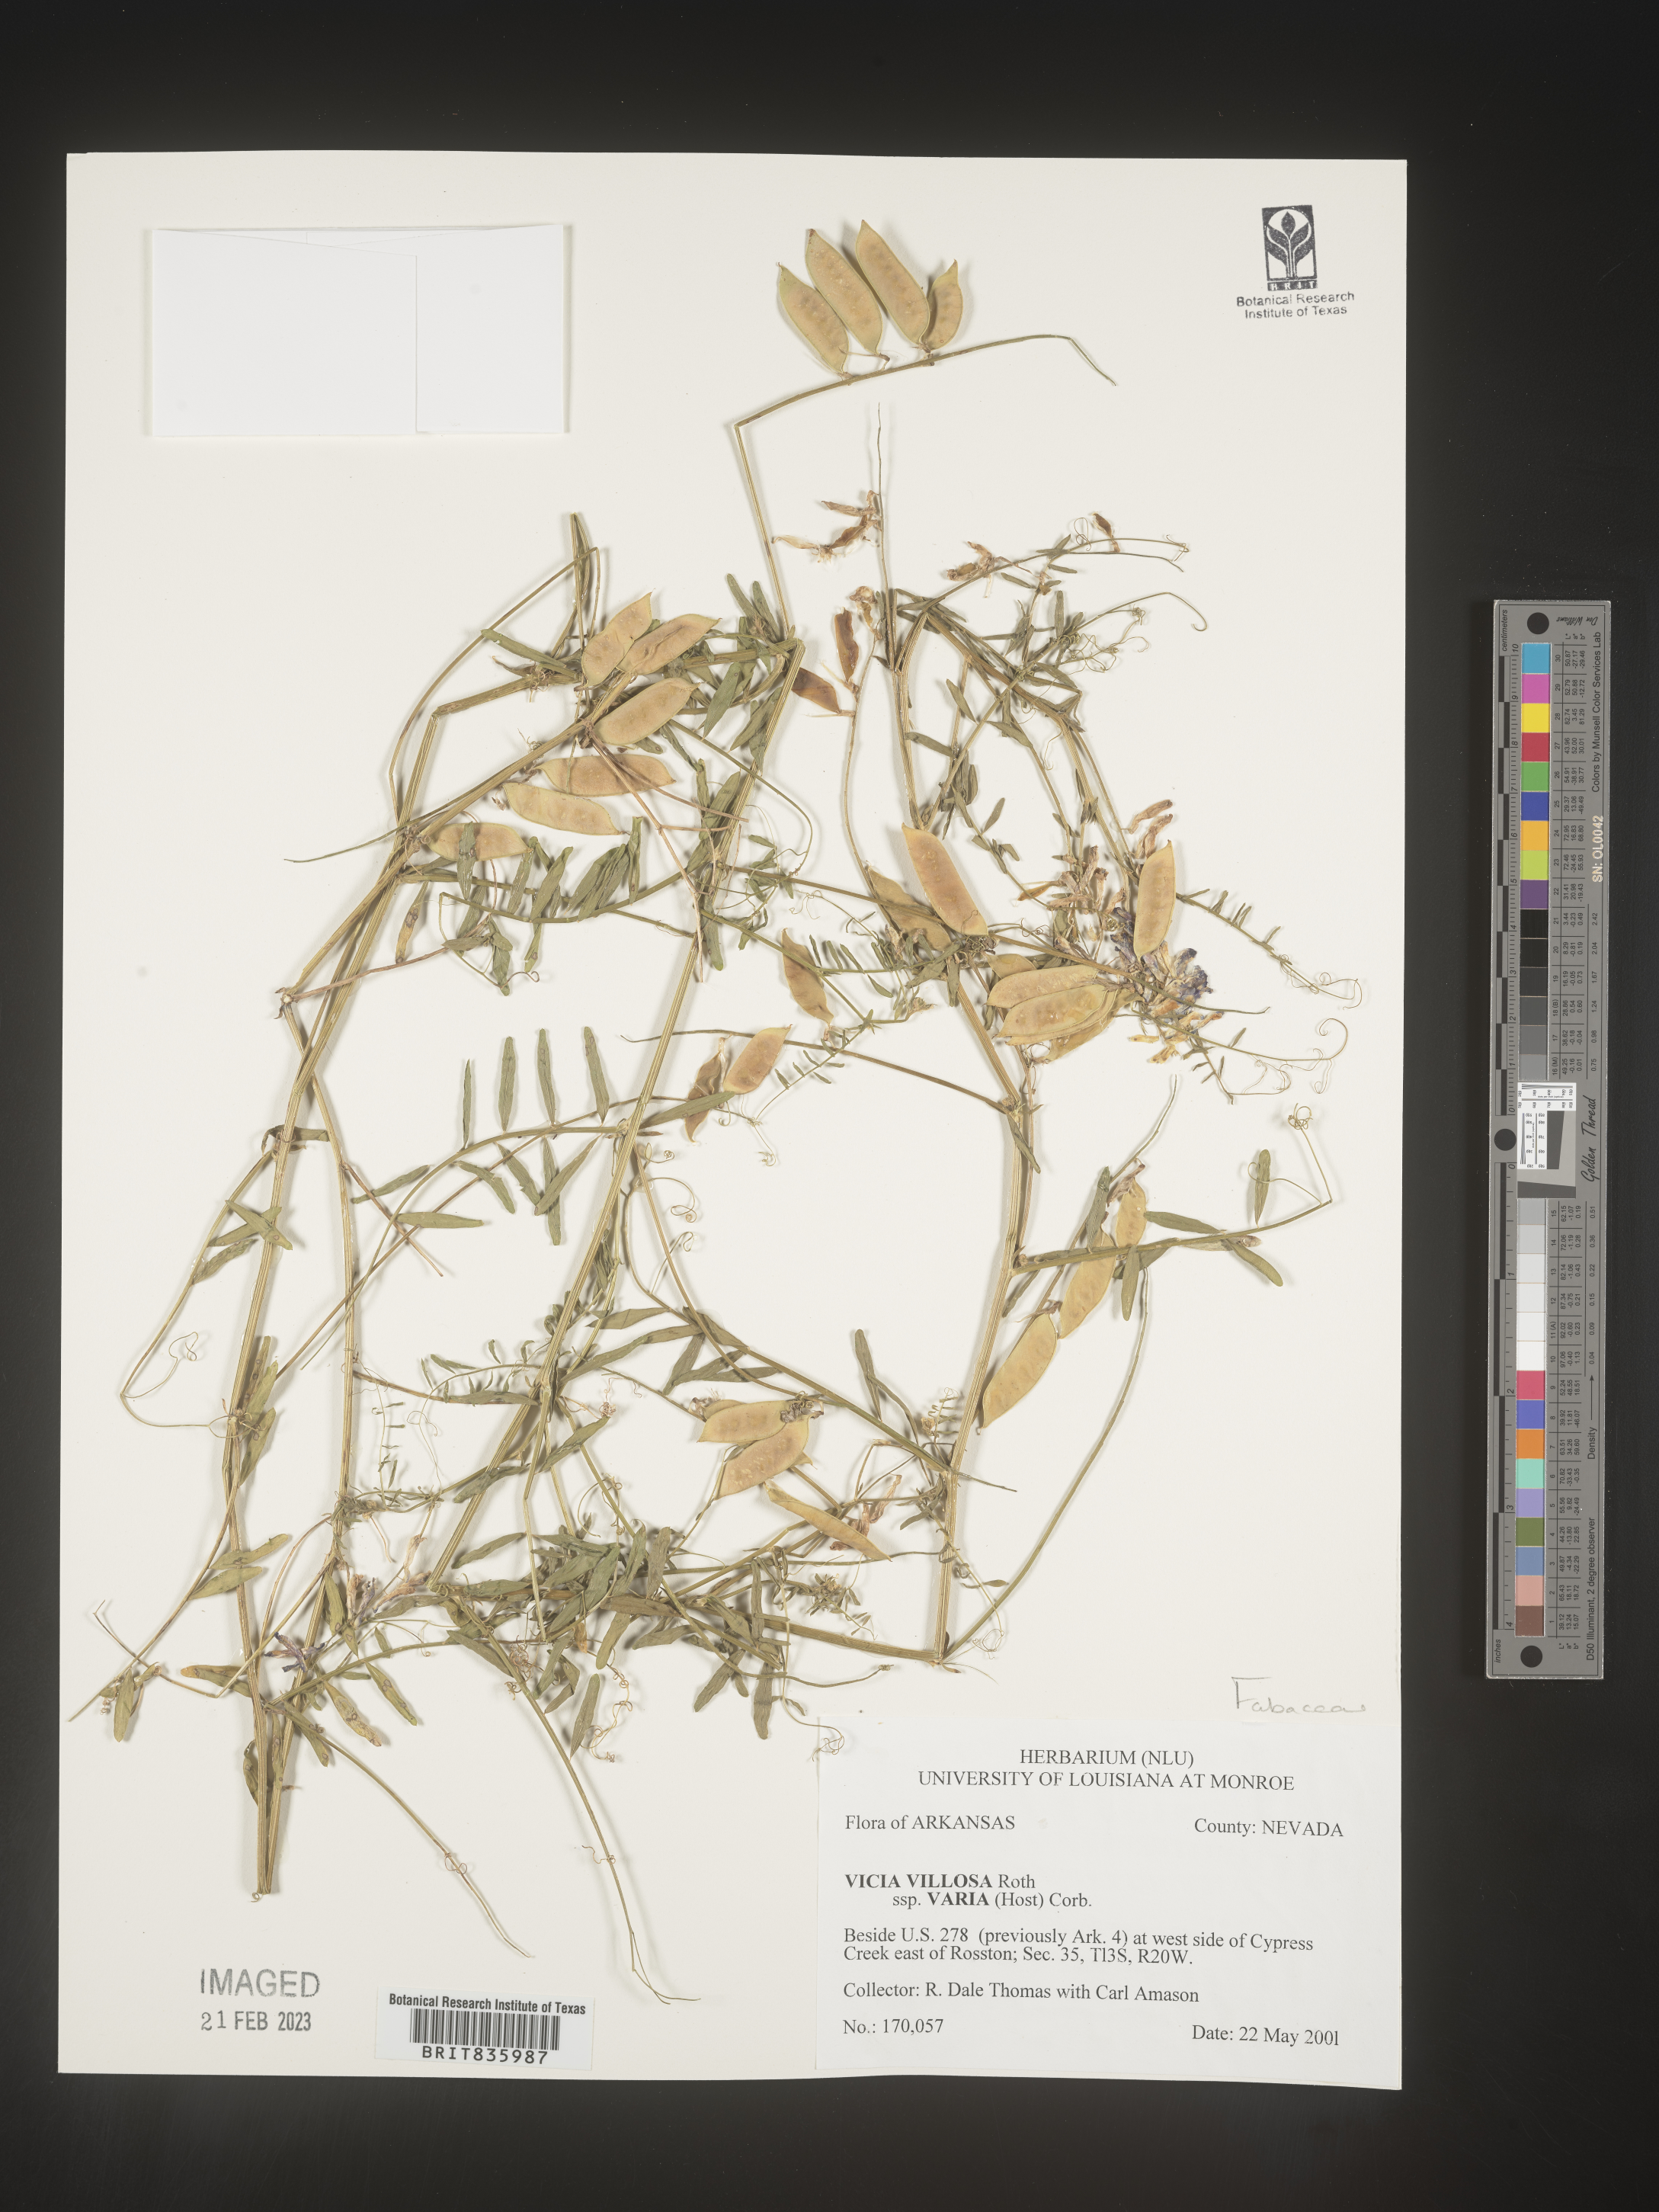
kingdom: Plantae
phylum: Tracheophyta
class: Magnoliopsida
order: Fabales
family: Fabaceae
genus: Vicia
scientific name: Vicia villosa
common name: Fodder vetch
